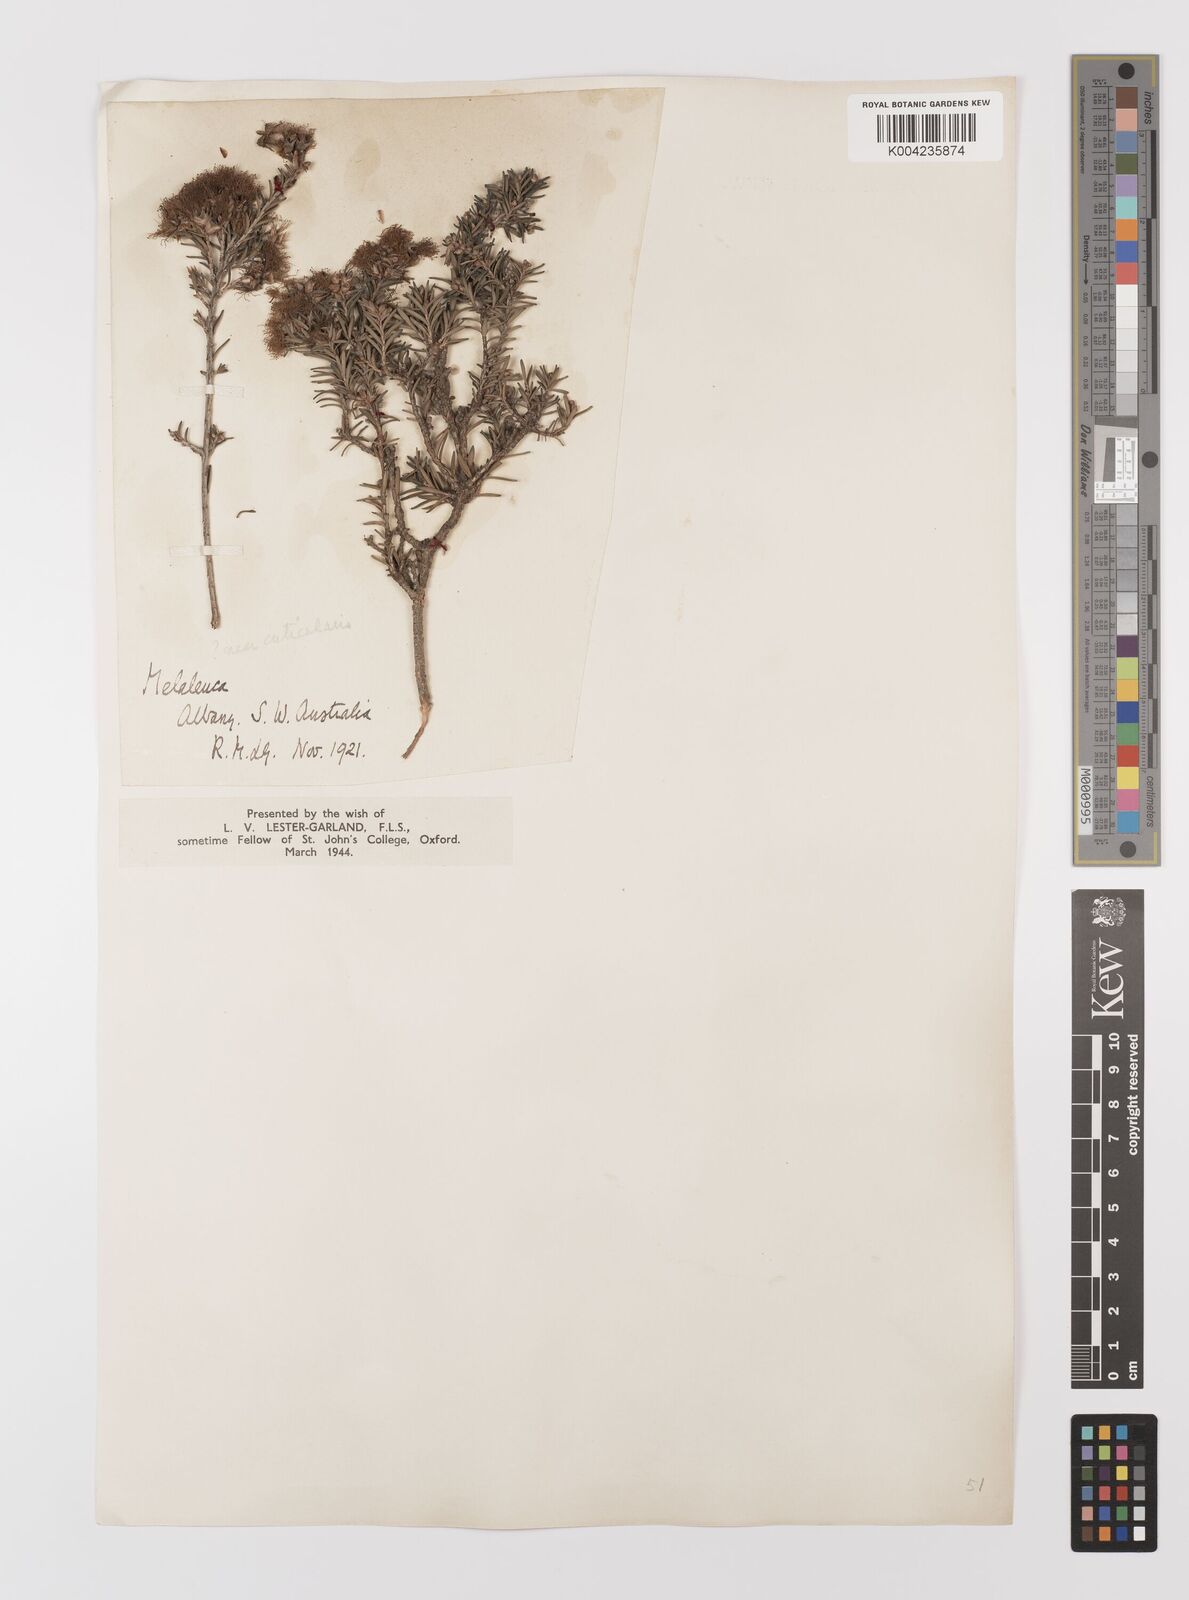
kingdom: Plantae
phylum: Tracheophyta
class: Magnoliopsida
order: Myrtales
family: Myrtaceae
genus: Melaleuca
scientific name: Melaleuca cuticularis
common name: Saltwater paperbark
